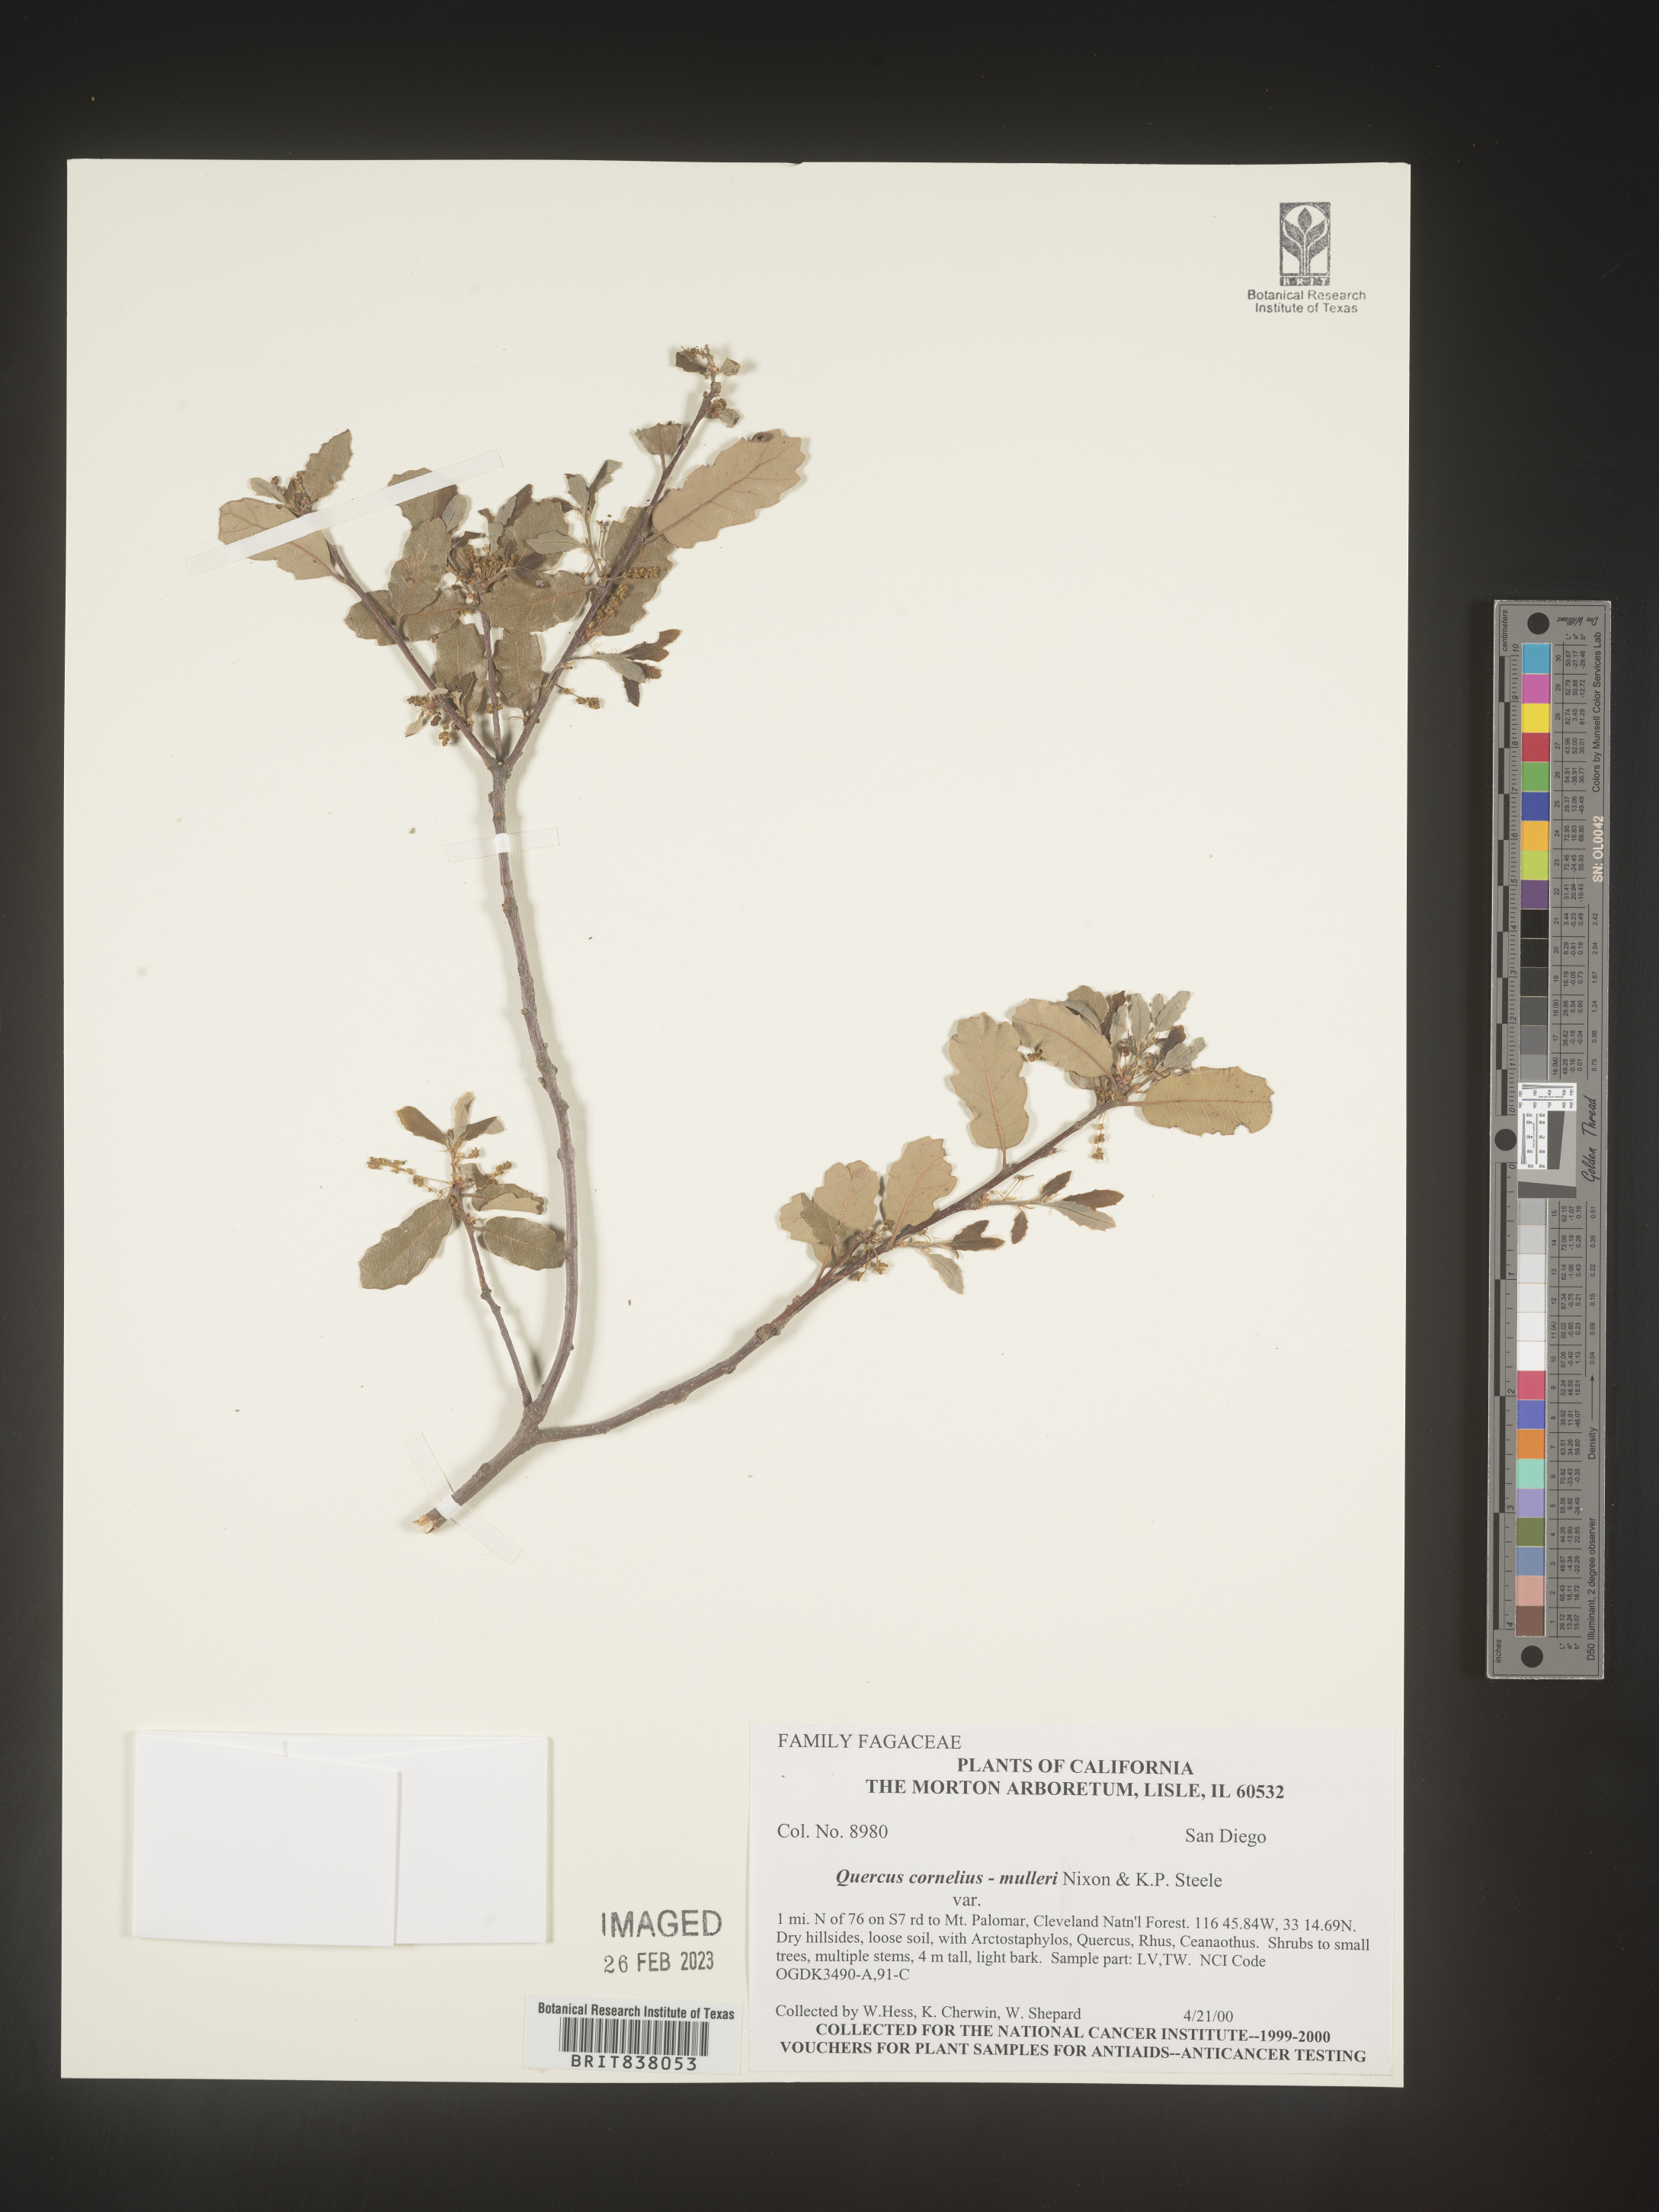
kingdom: Plantae
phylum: Tracheophyta
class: Magnoliopsida
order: Fagales
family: Fagaceae
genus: Quercus
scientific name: Quercus
